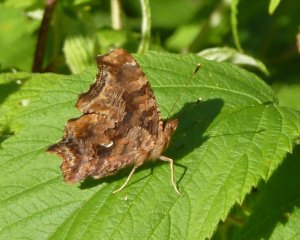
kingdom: Animalia
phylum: Arthropoda
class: Insecta
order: Lepidoptera
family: Nymphalidae
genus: Polygonia
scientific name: Polygonia comma
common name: Eastern Comma
